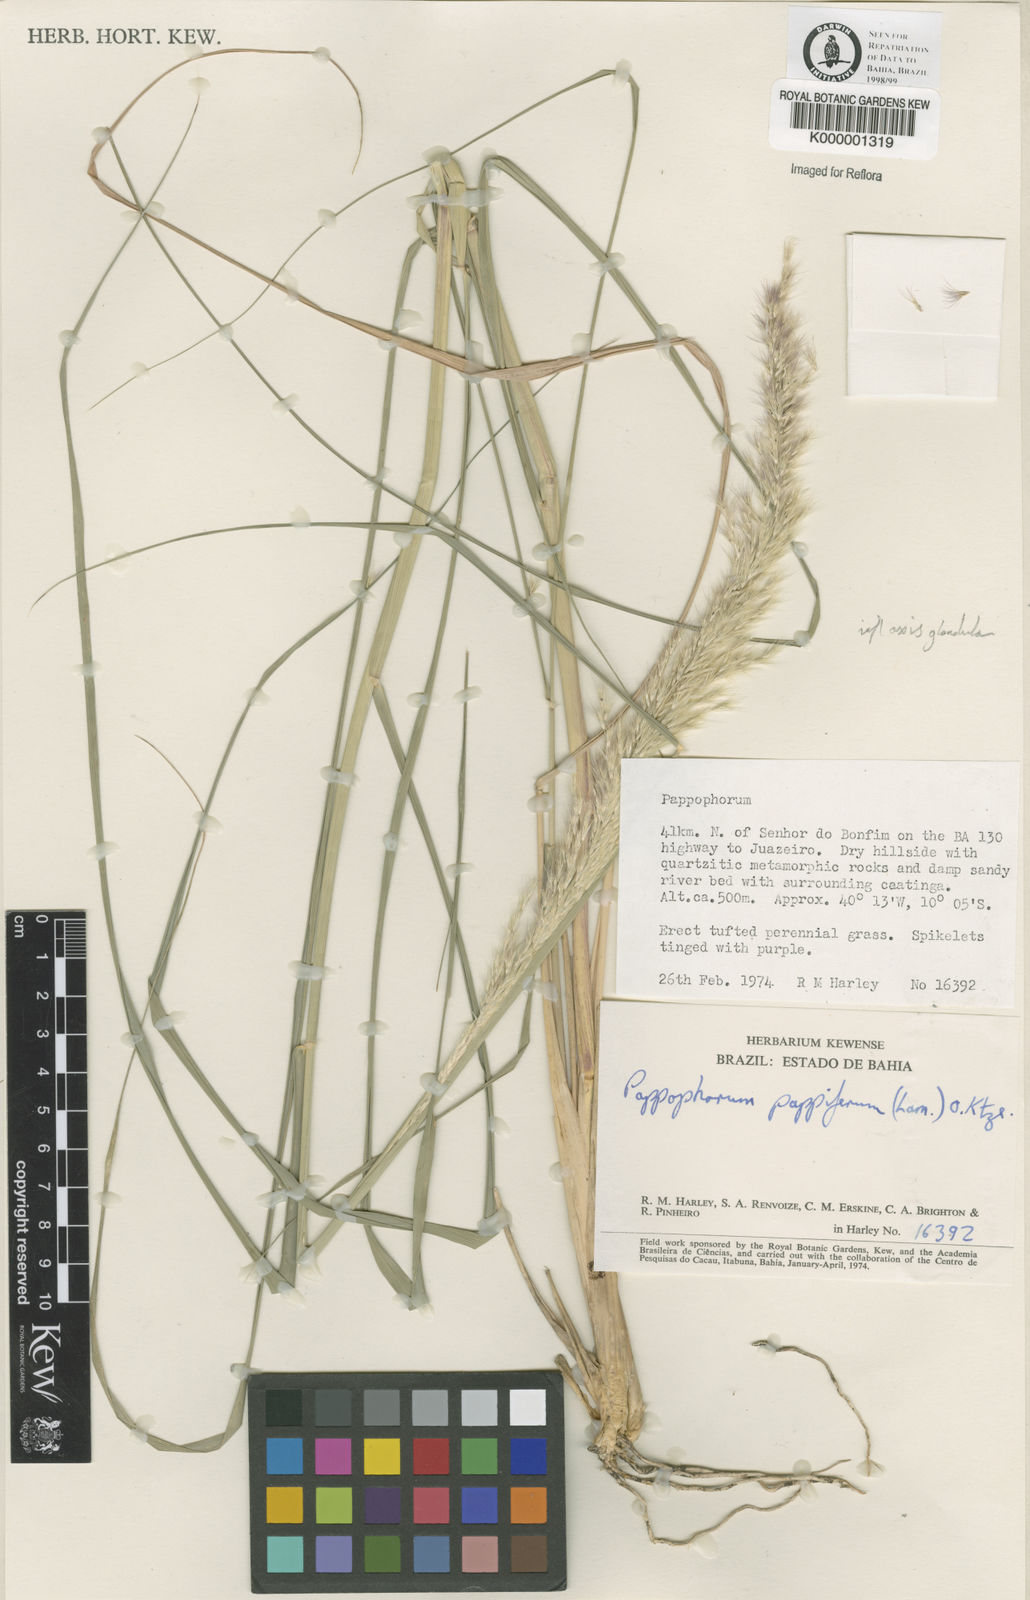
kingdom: Plantae
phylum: Tracheophyta
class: Liliopsida
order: Poales
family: Poaceae
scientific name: Poaceae
